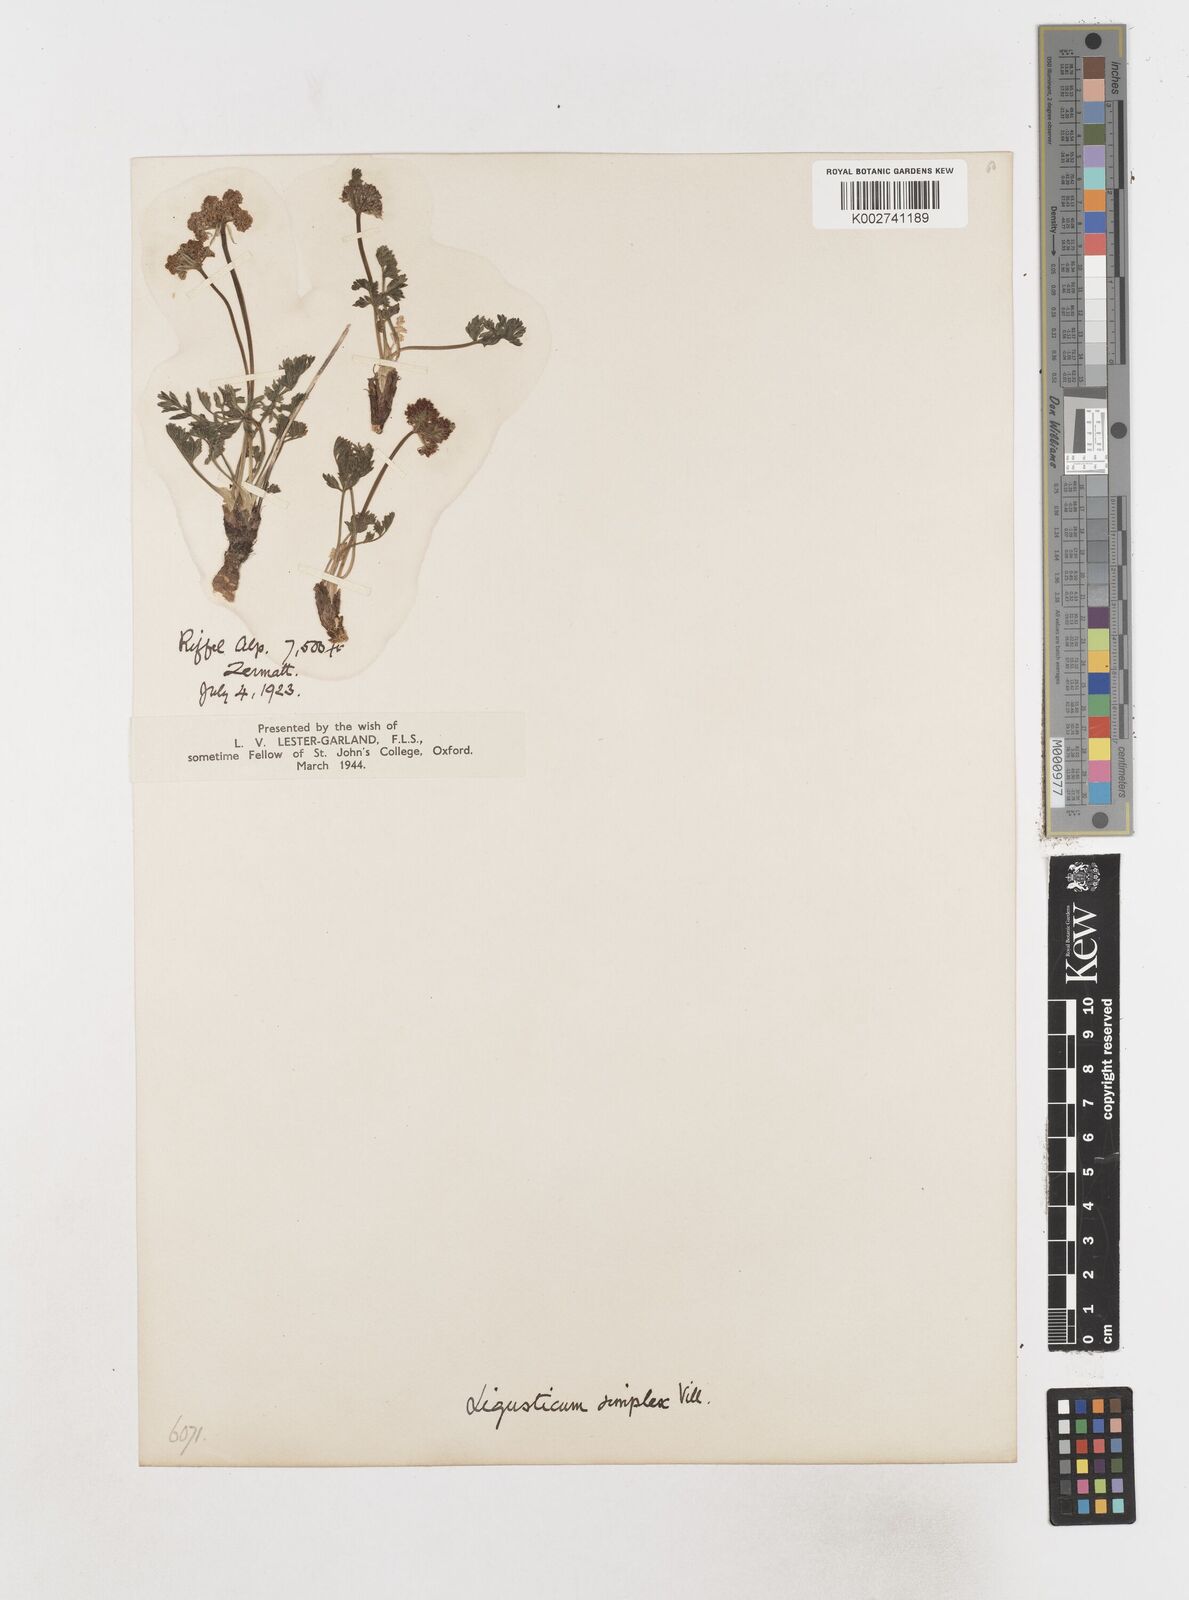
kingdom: Plantae
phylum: Tracheophyta
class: Magnoliopsida
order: Apiales
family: Apiaceae
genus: Pachypleurum
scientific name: Pachypleurum mutellinoides
